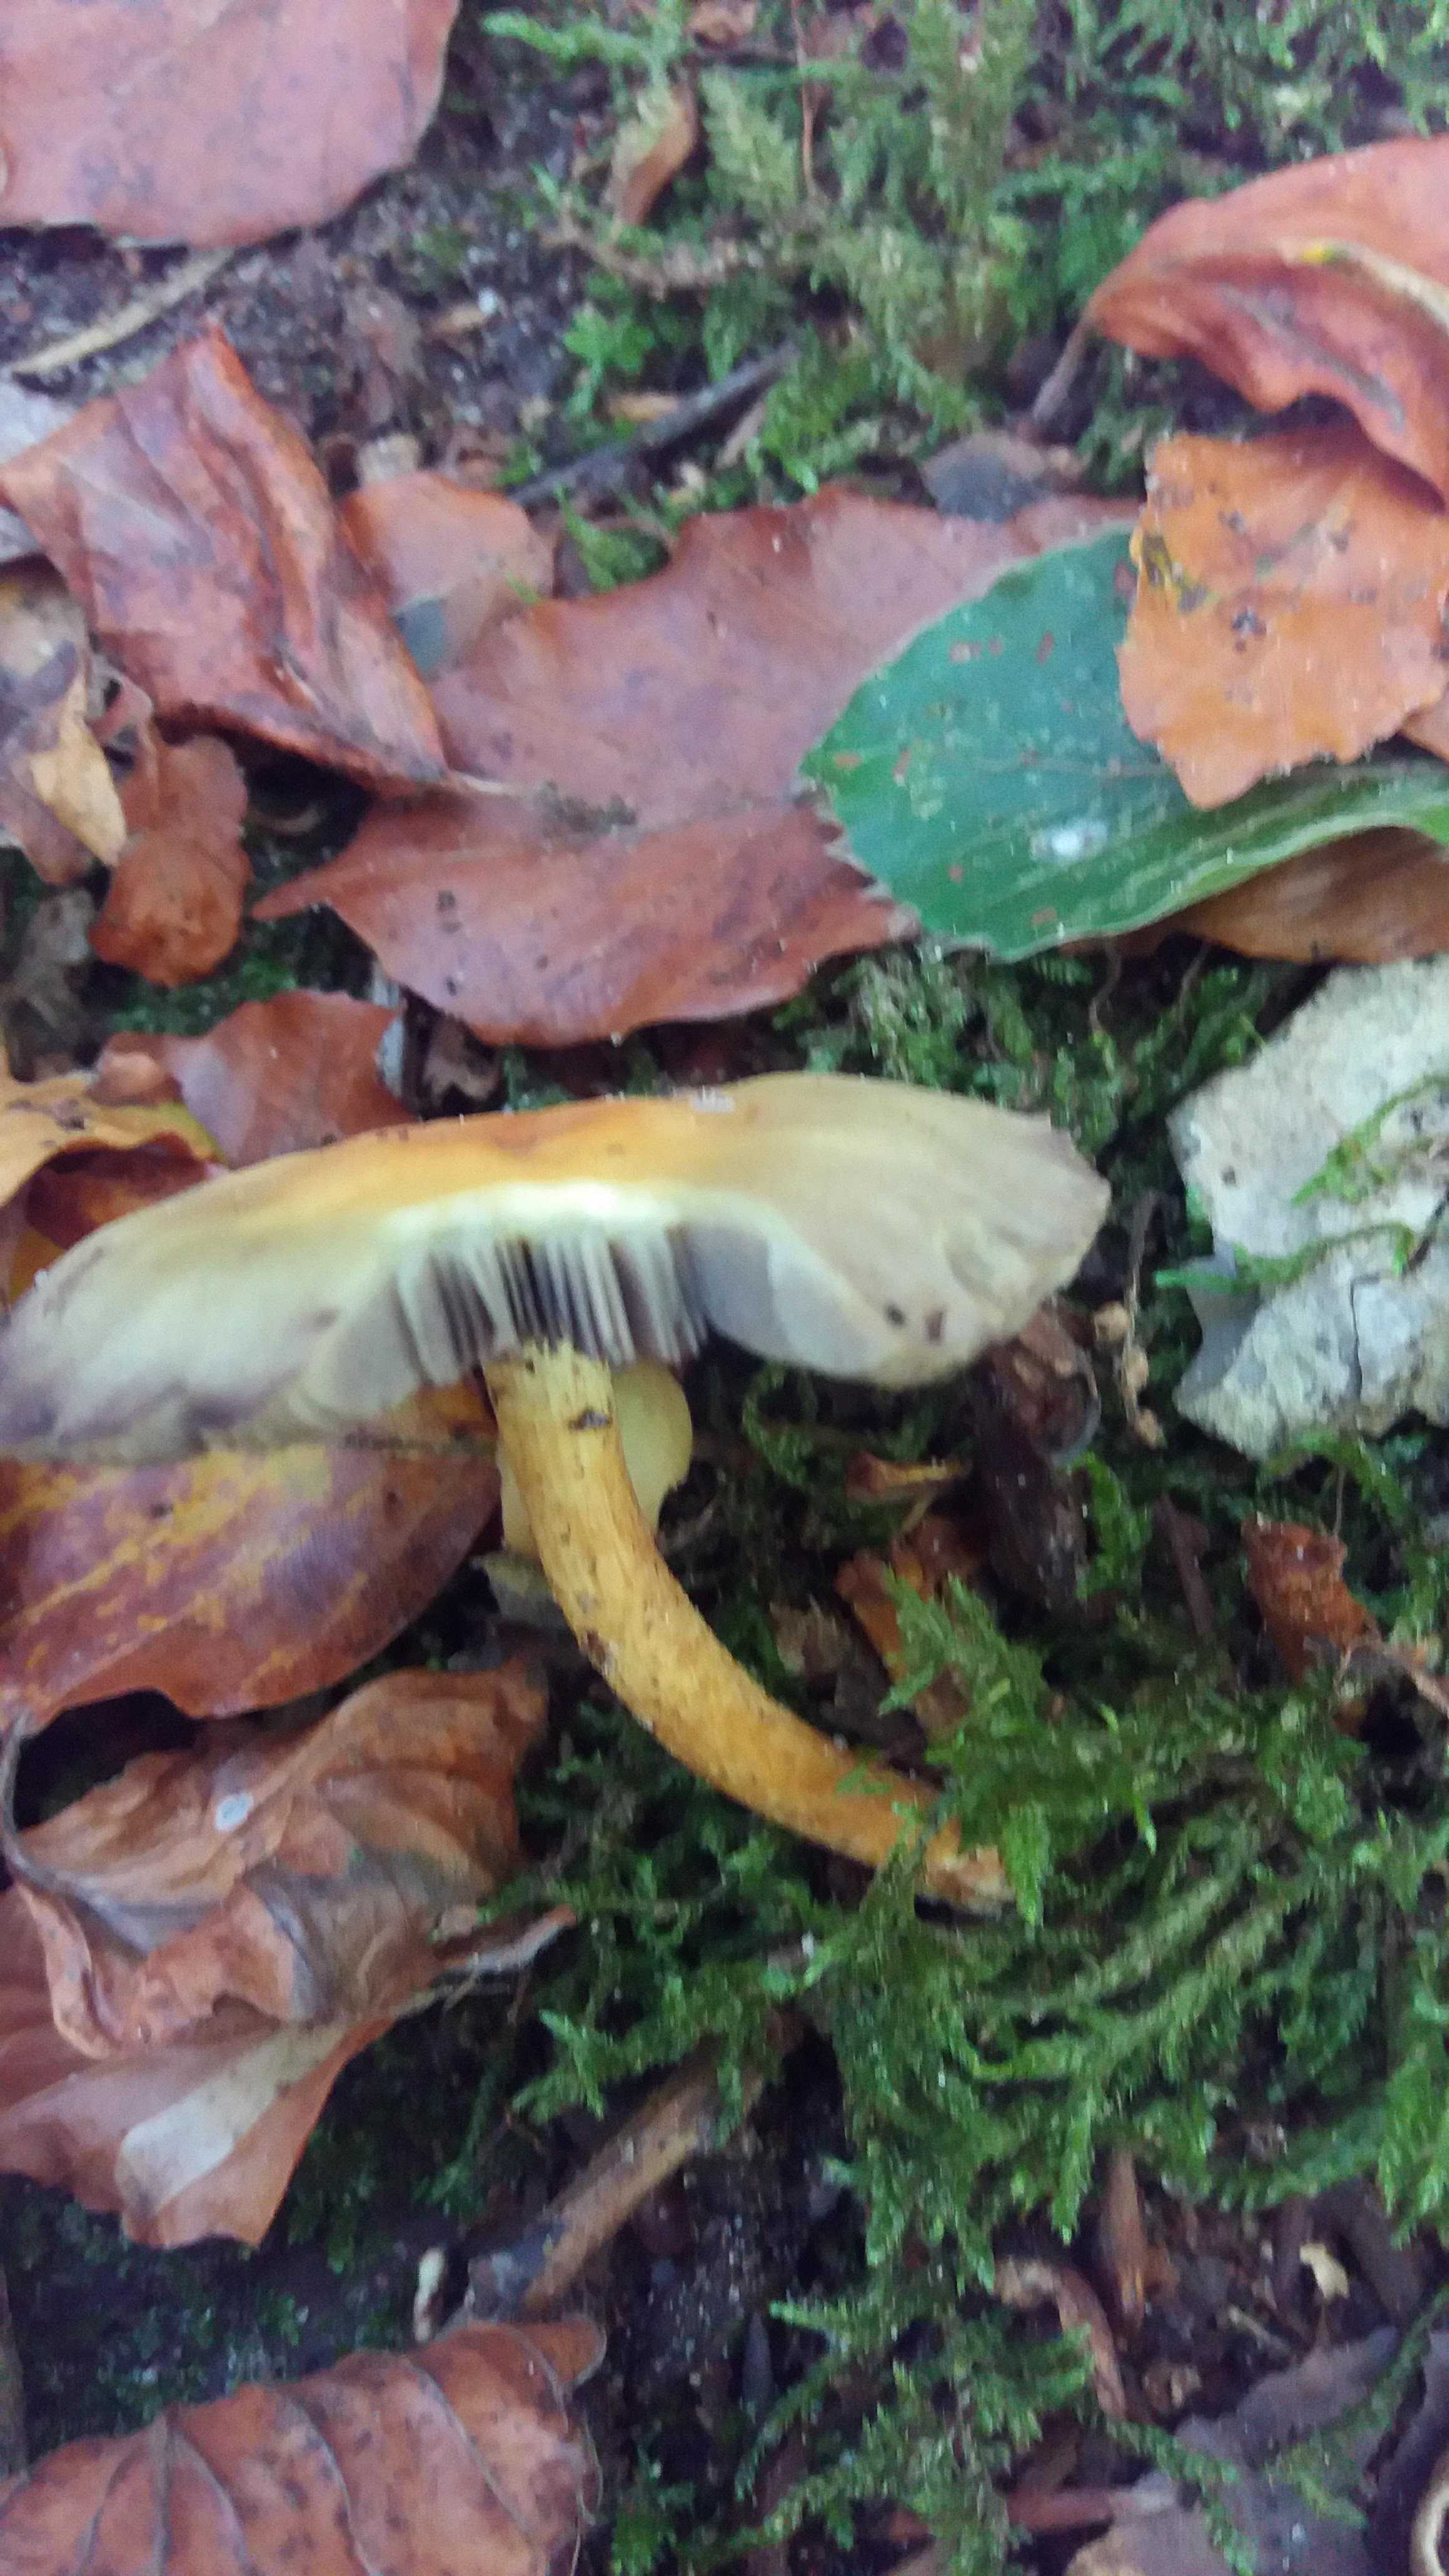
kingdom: Fungi
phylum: Basidiomycota
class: Agaricomycetes
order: Agaricales
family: Strophariaceae
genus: Hypholoma
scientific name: Hypholoma fasciculare
